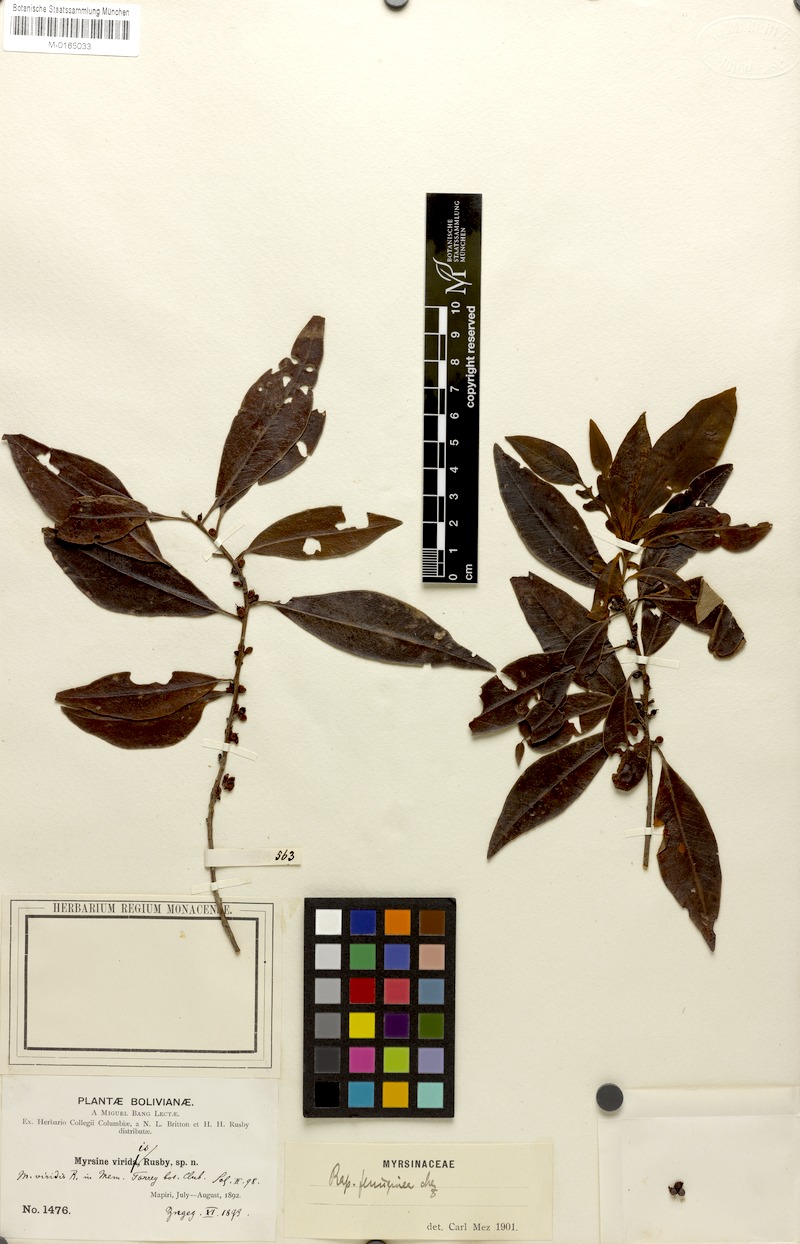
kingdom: Plantae
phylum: Tracheophyta
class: Magnoliopsida
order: Ericales
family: Primulaceae
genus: Myrsine
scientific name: Myrsine coriacea
